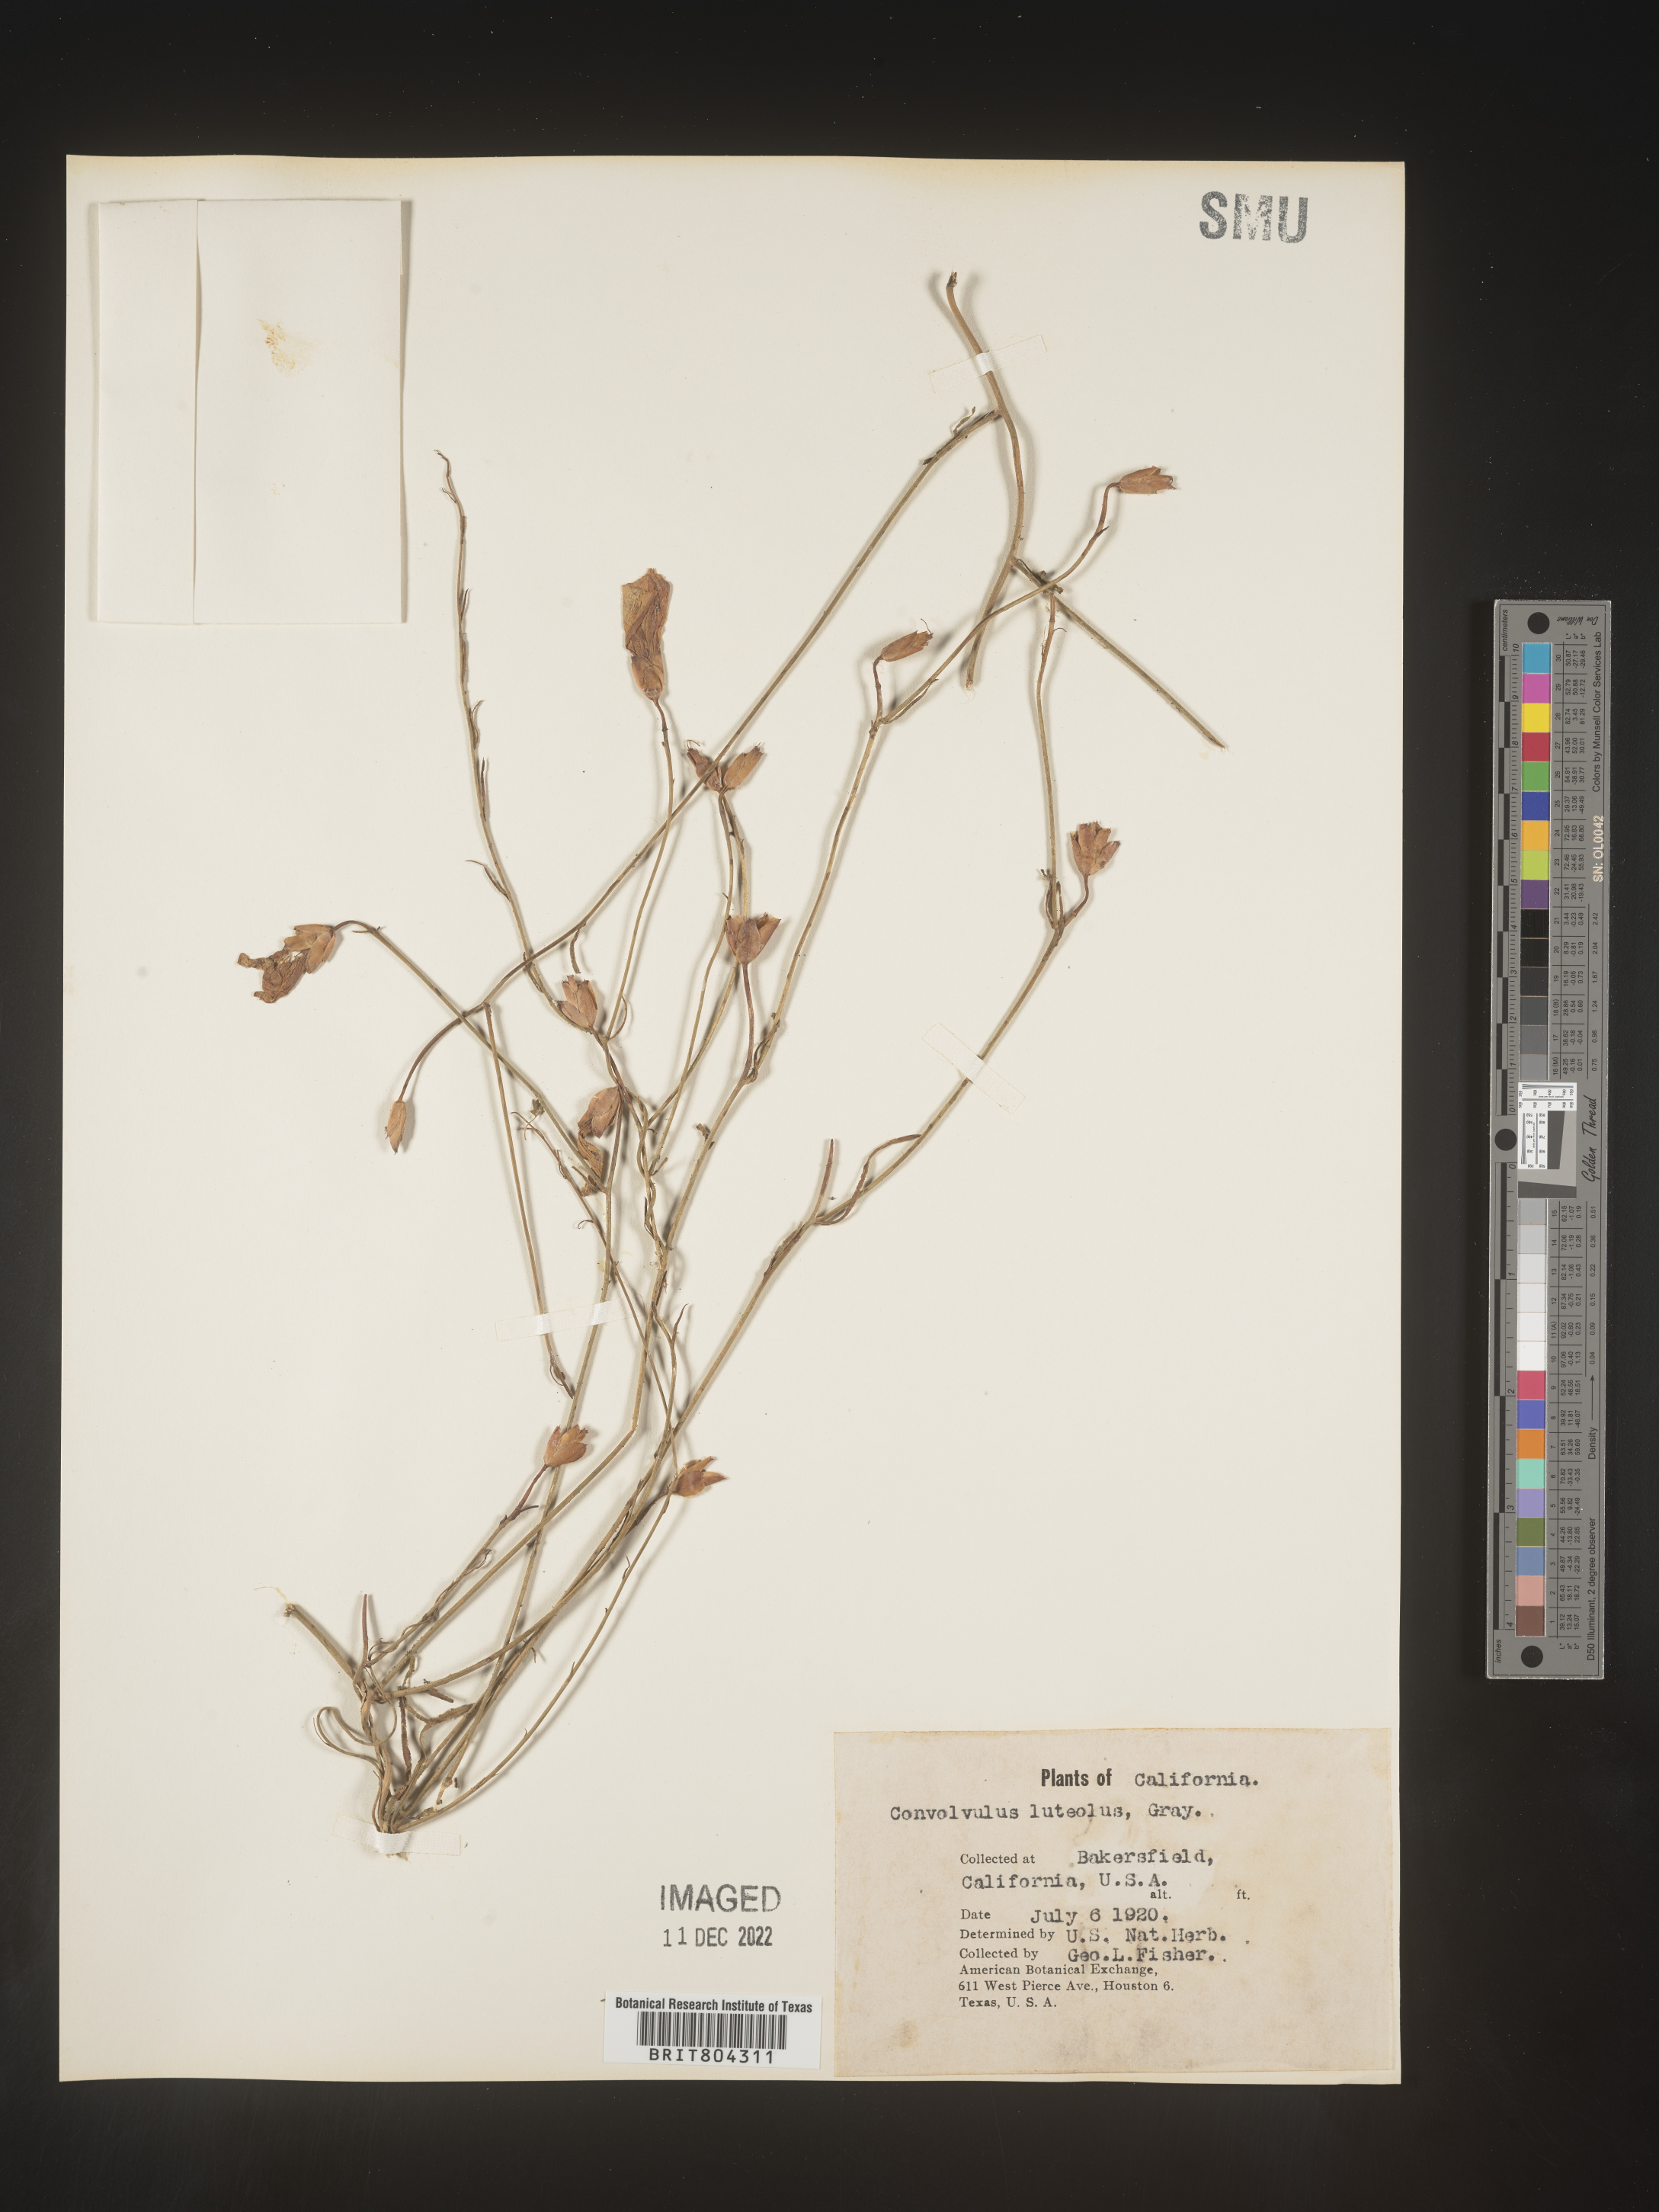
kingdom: Plantae
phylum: Tracheophyta
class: Magnoliopsida
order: Solanales
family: Convolvulaceae
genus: Calystegia
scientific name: Calystegia
